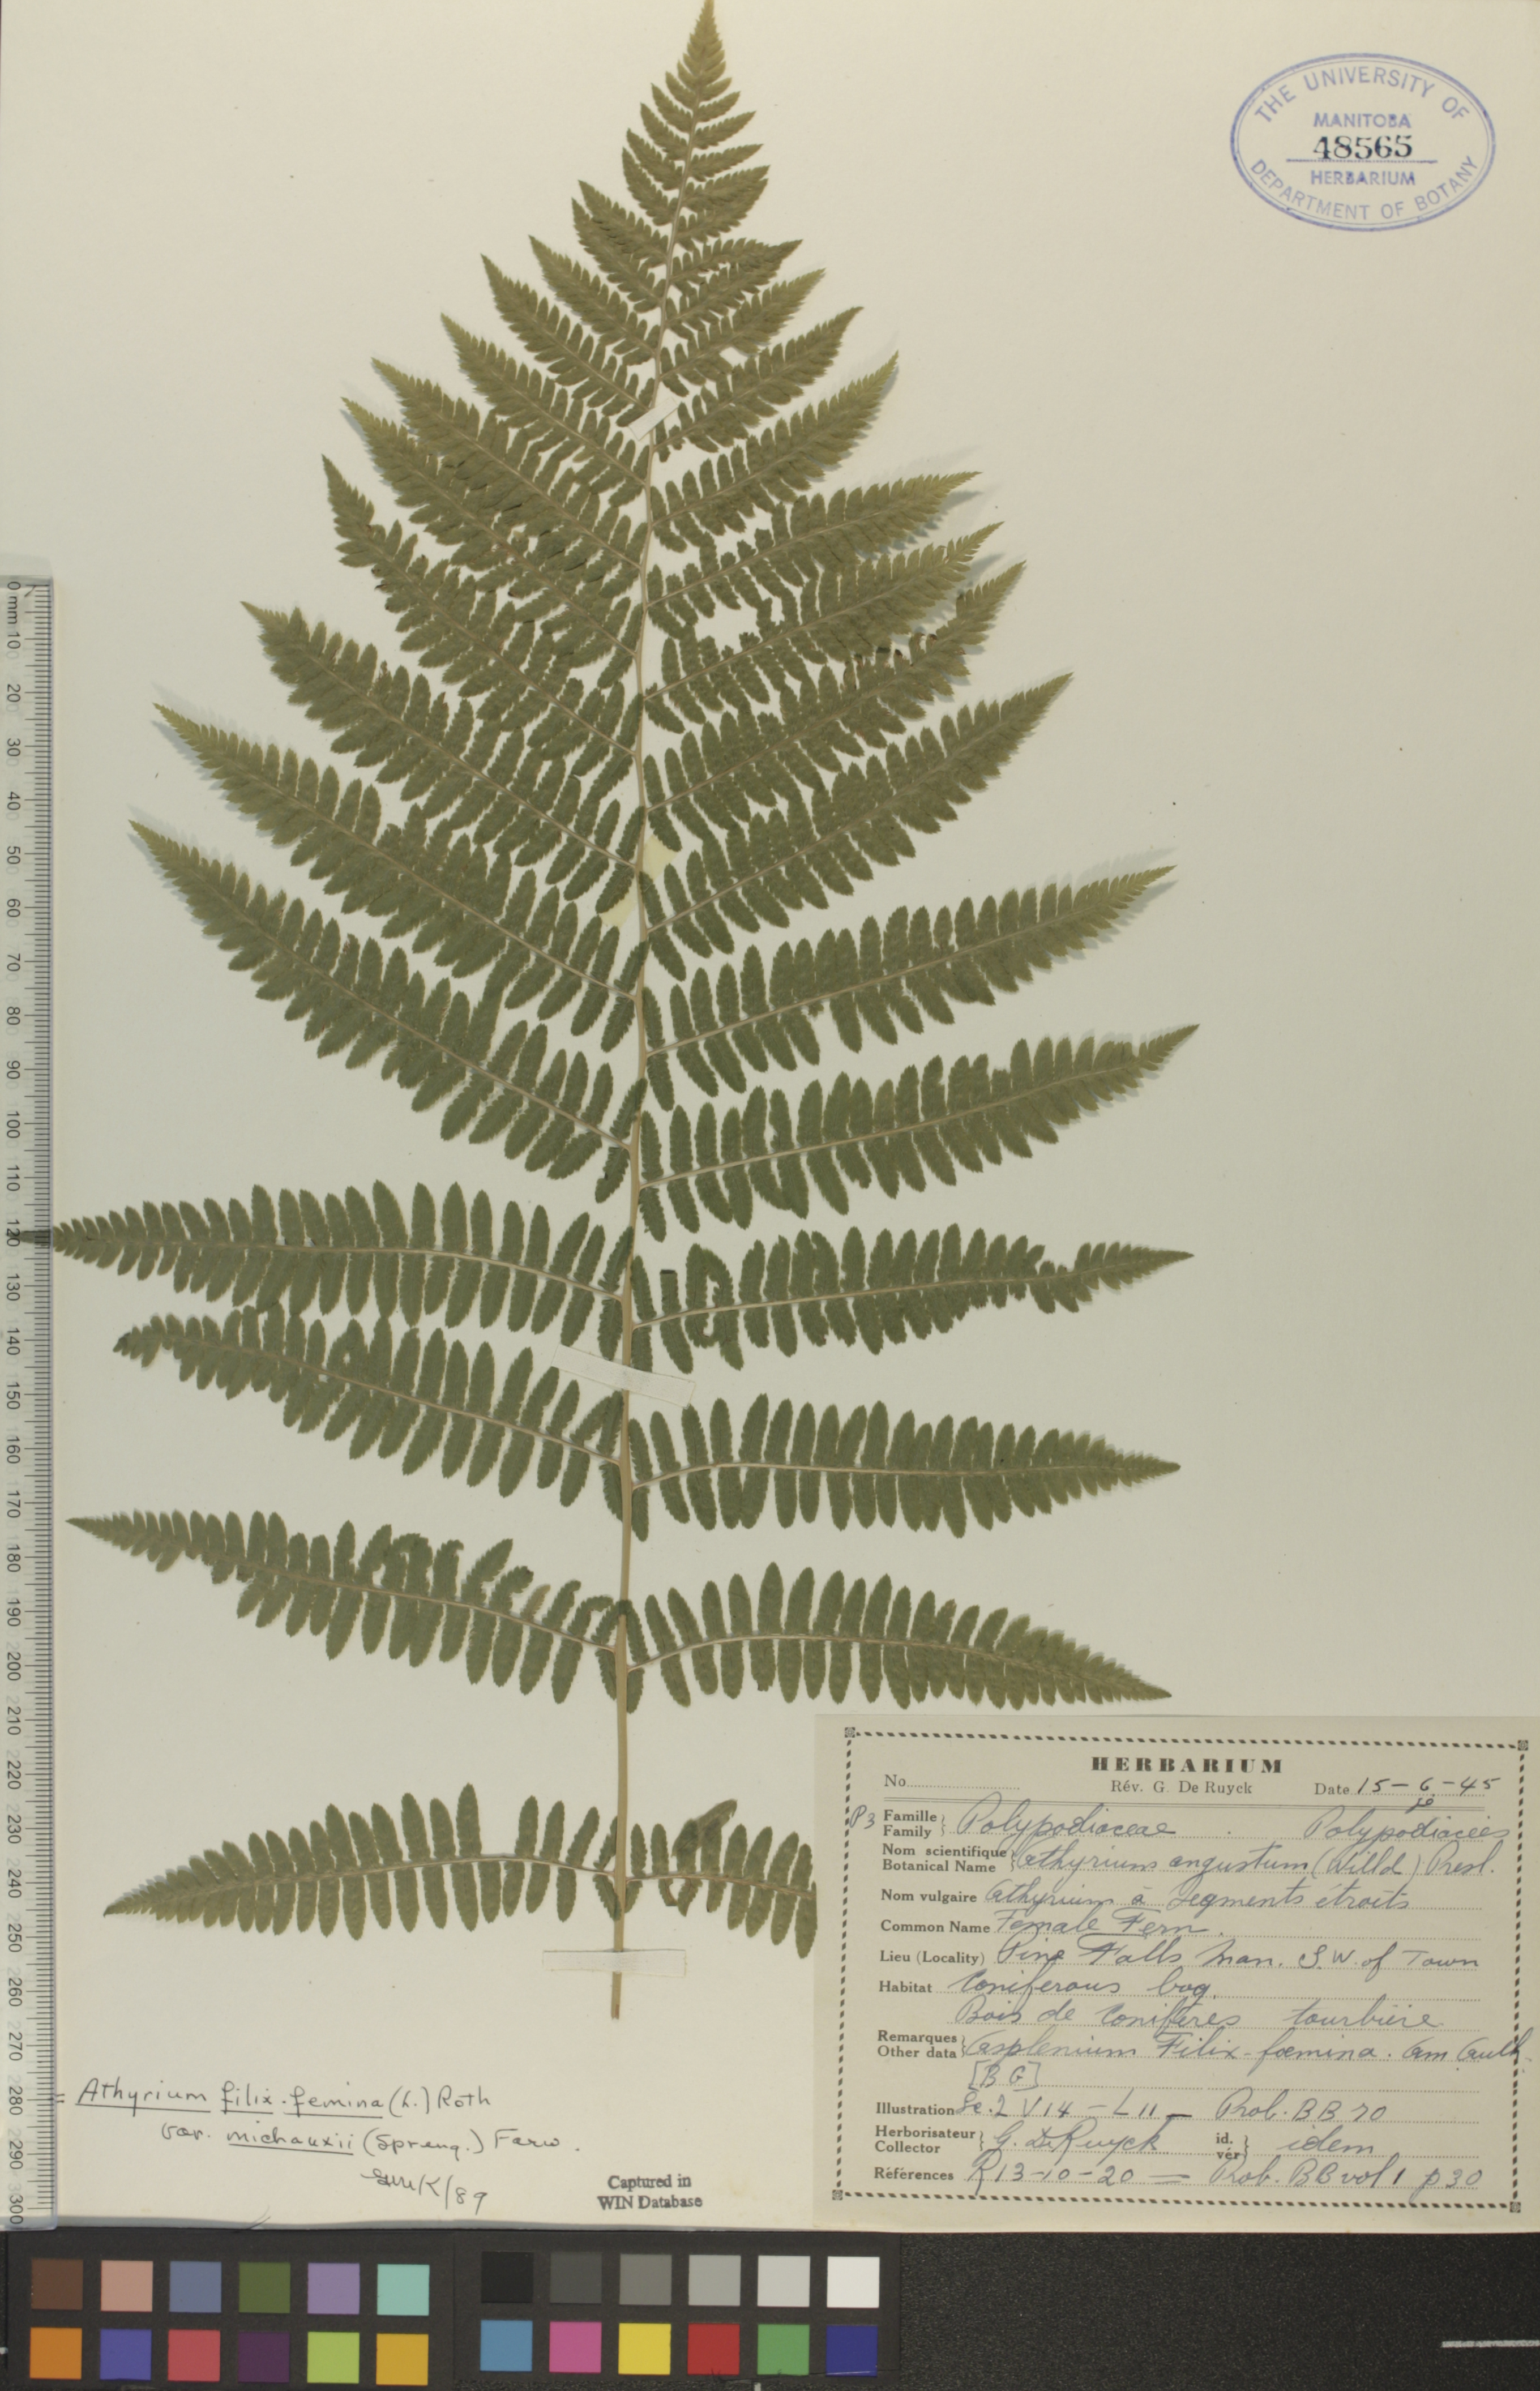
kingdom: Plantae
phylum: Tracheophyta
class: Polypodiopsida
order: Polypodiales
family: Athyriaceae
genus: Athyrium
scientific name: Athyrium angustum
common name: Northern lady fern
